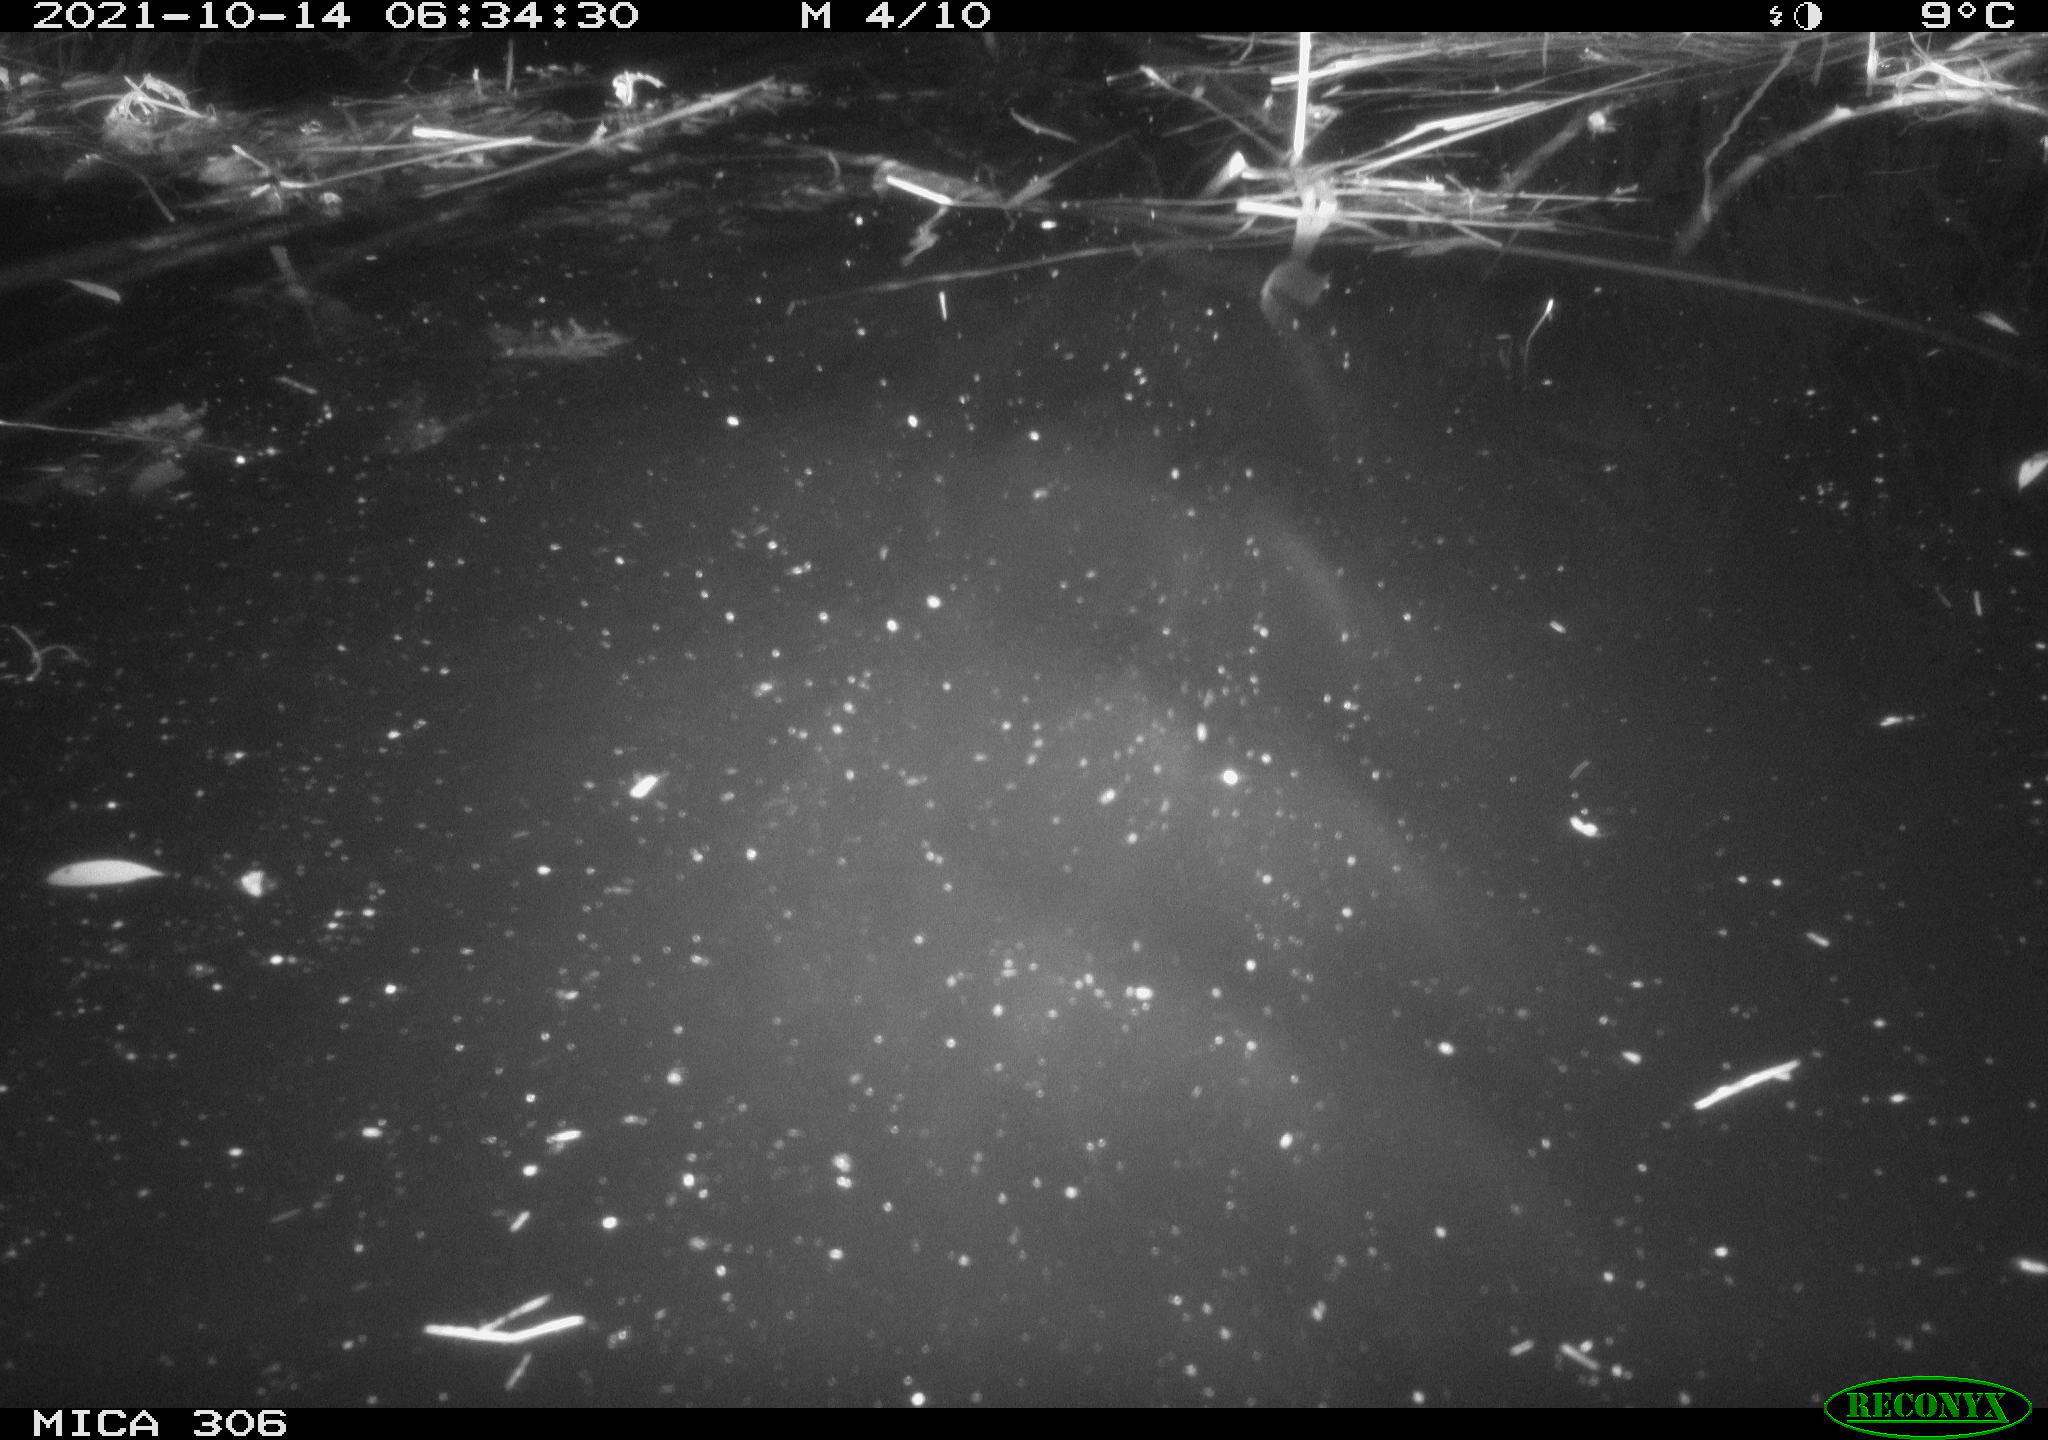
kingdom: Animalia
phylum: Chordata
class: Mammalia
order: Rodentia
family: Cricetidae
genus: Ondatra
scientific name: Ondatra zibethicus
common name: Muskrat
